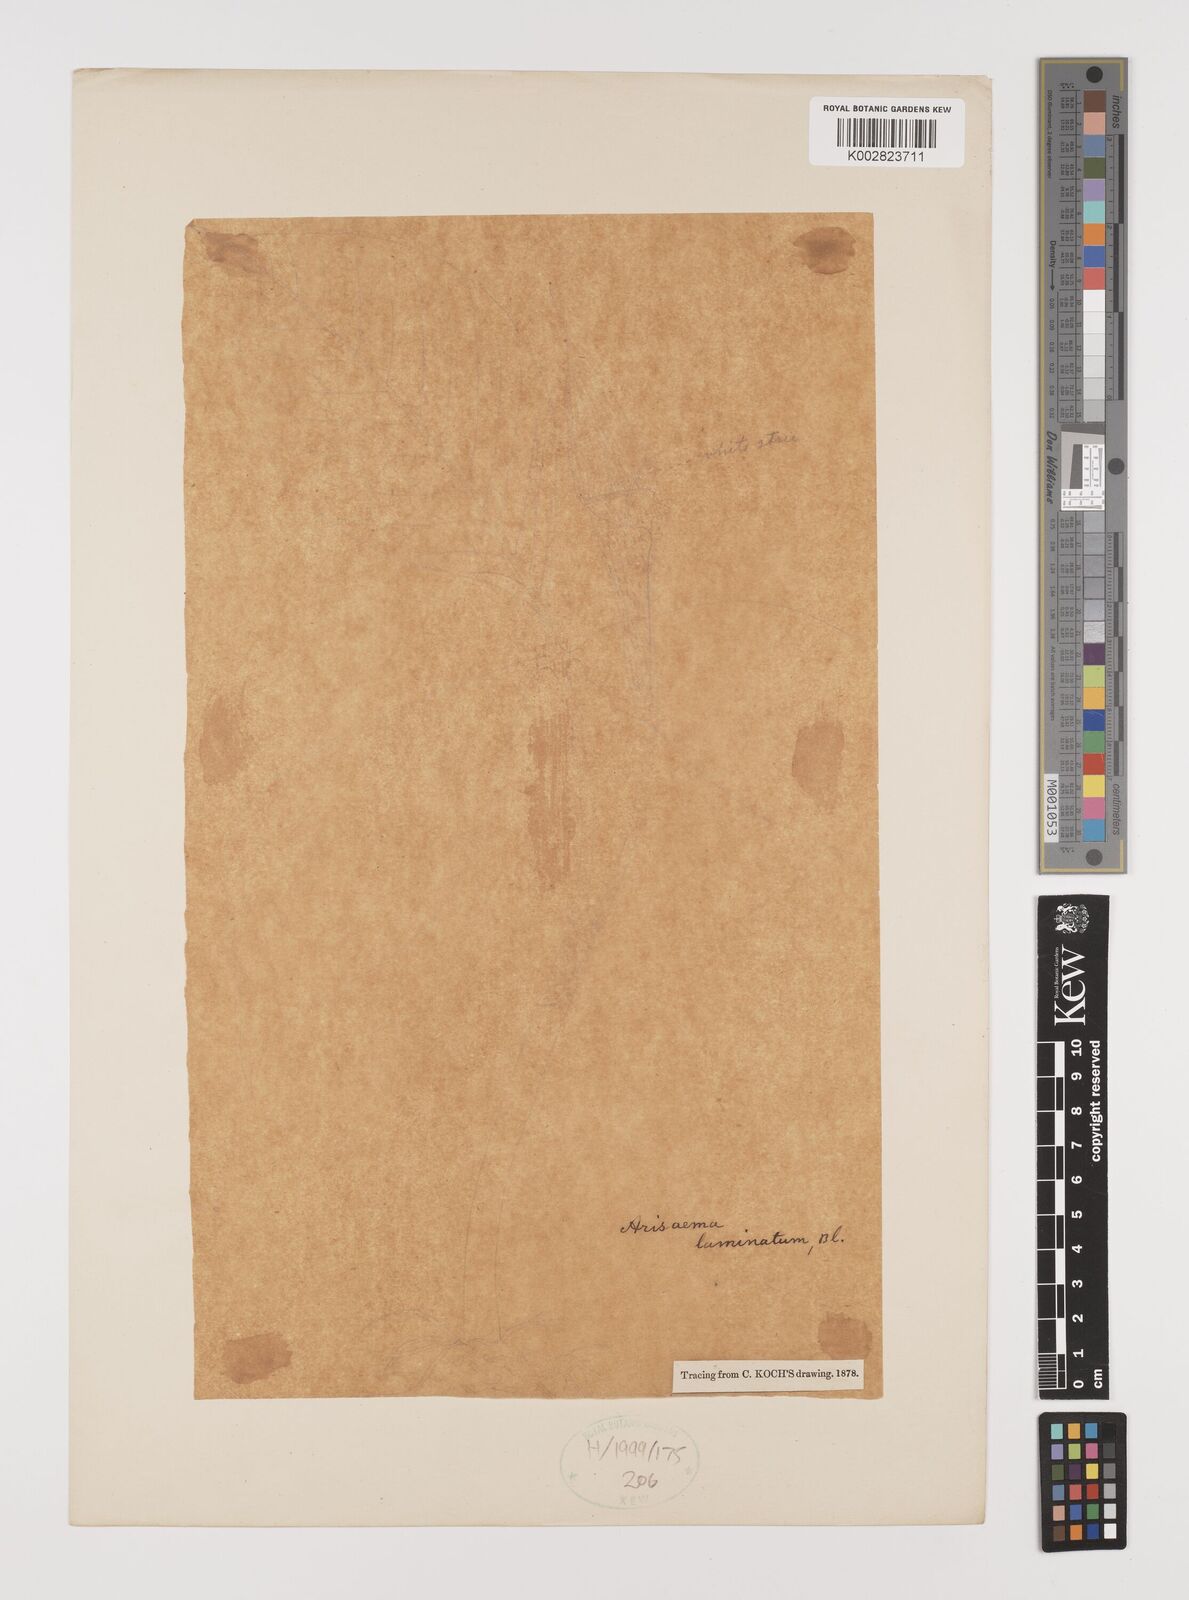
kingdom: Plantae
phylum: Tracheophyta
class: Liliopsida
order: Alismatales
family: Araceae
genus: Arisaema
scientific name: Arisaema laminatum
